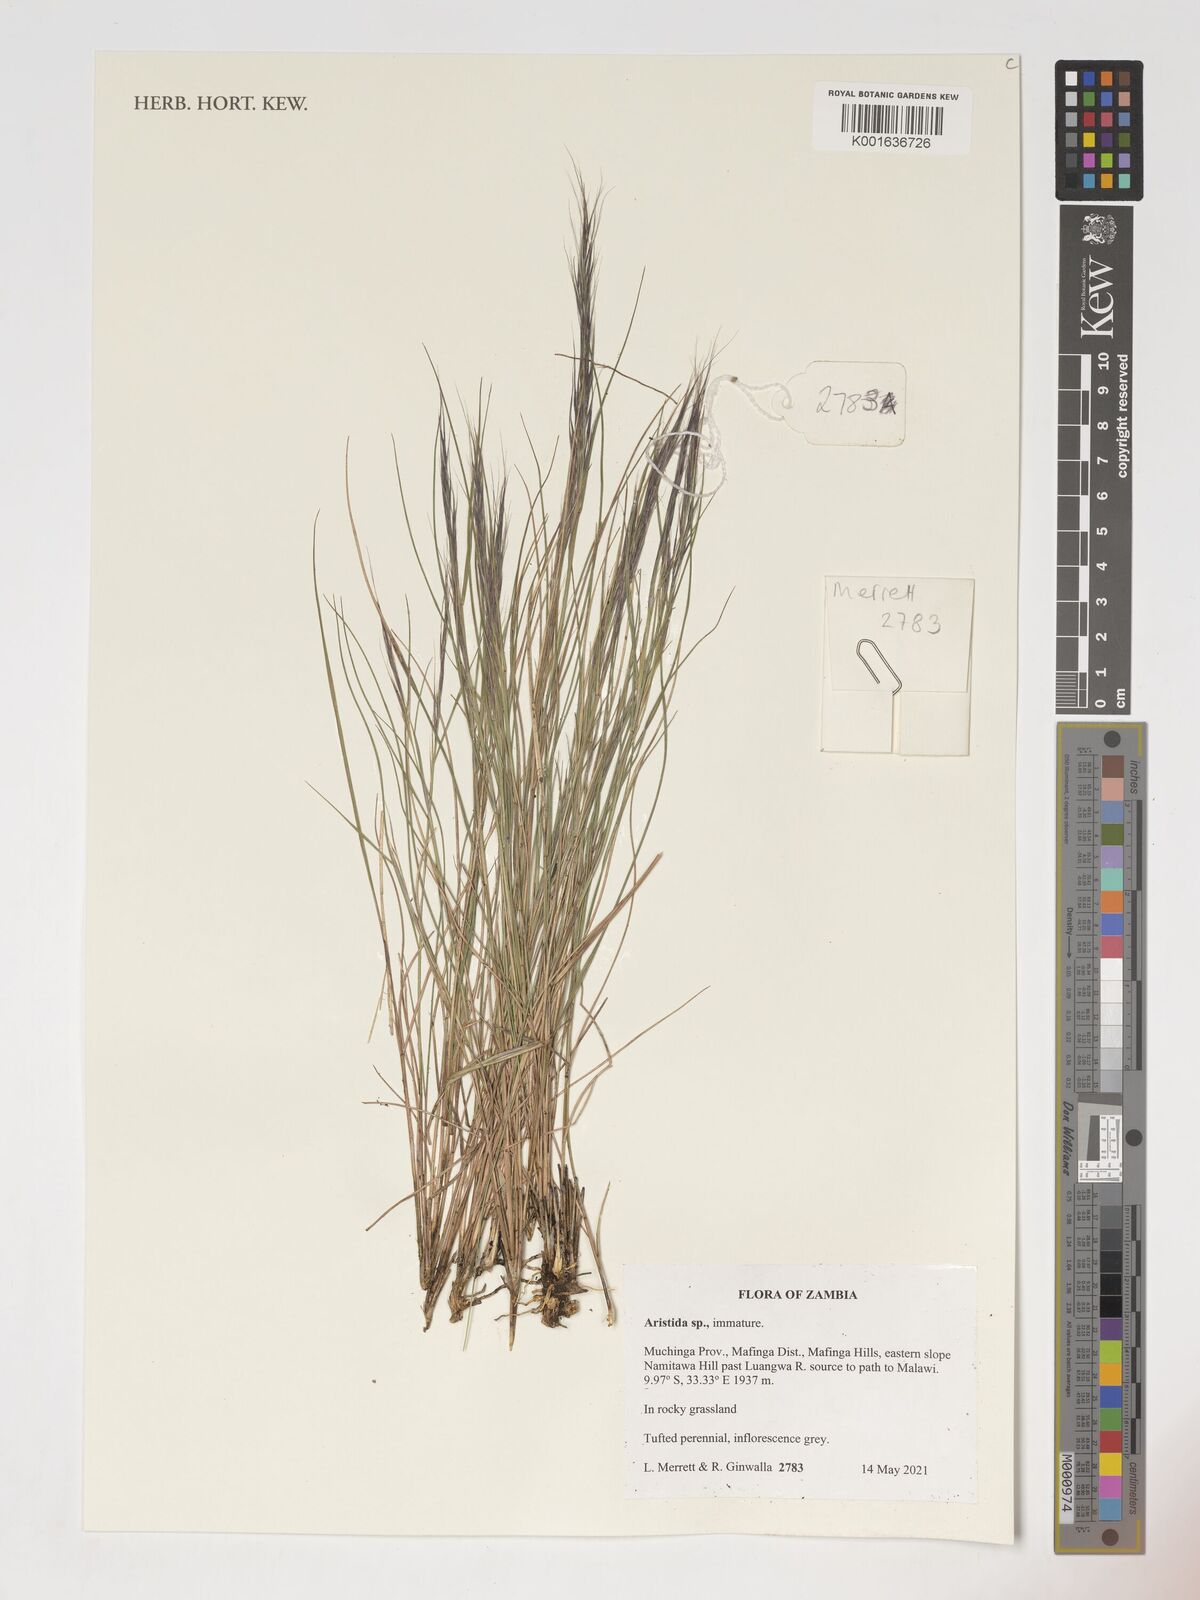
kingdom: Plantae
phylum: Tracheophyta
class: Liliopsida
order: Poales
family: Poaceae
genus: Aristida
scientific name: Aristida
